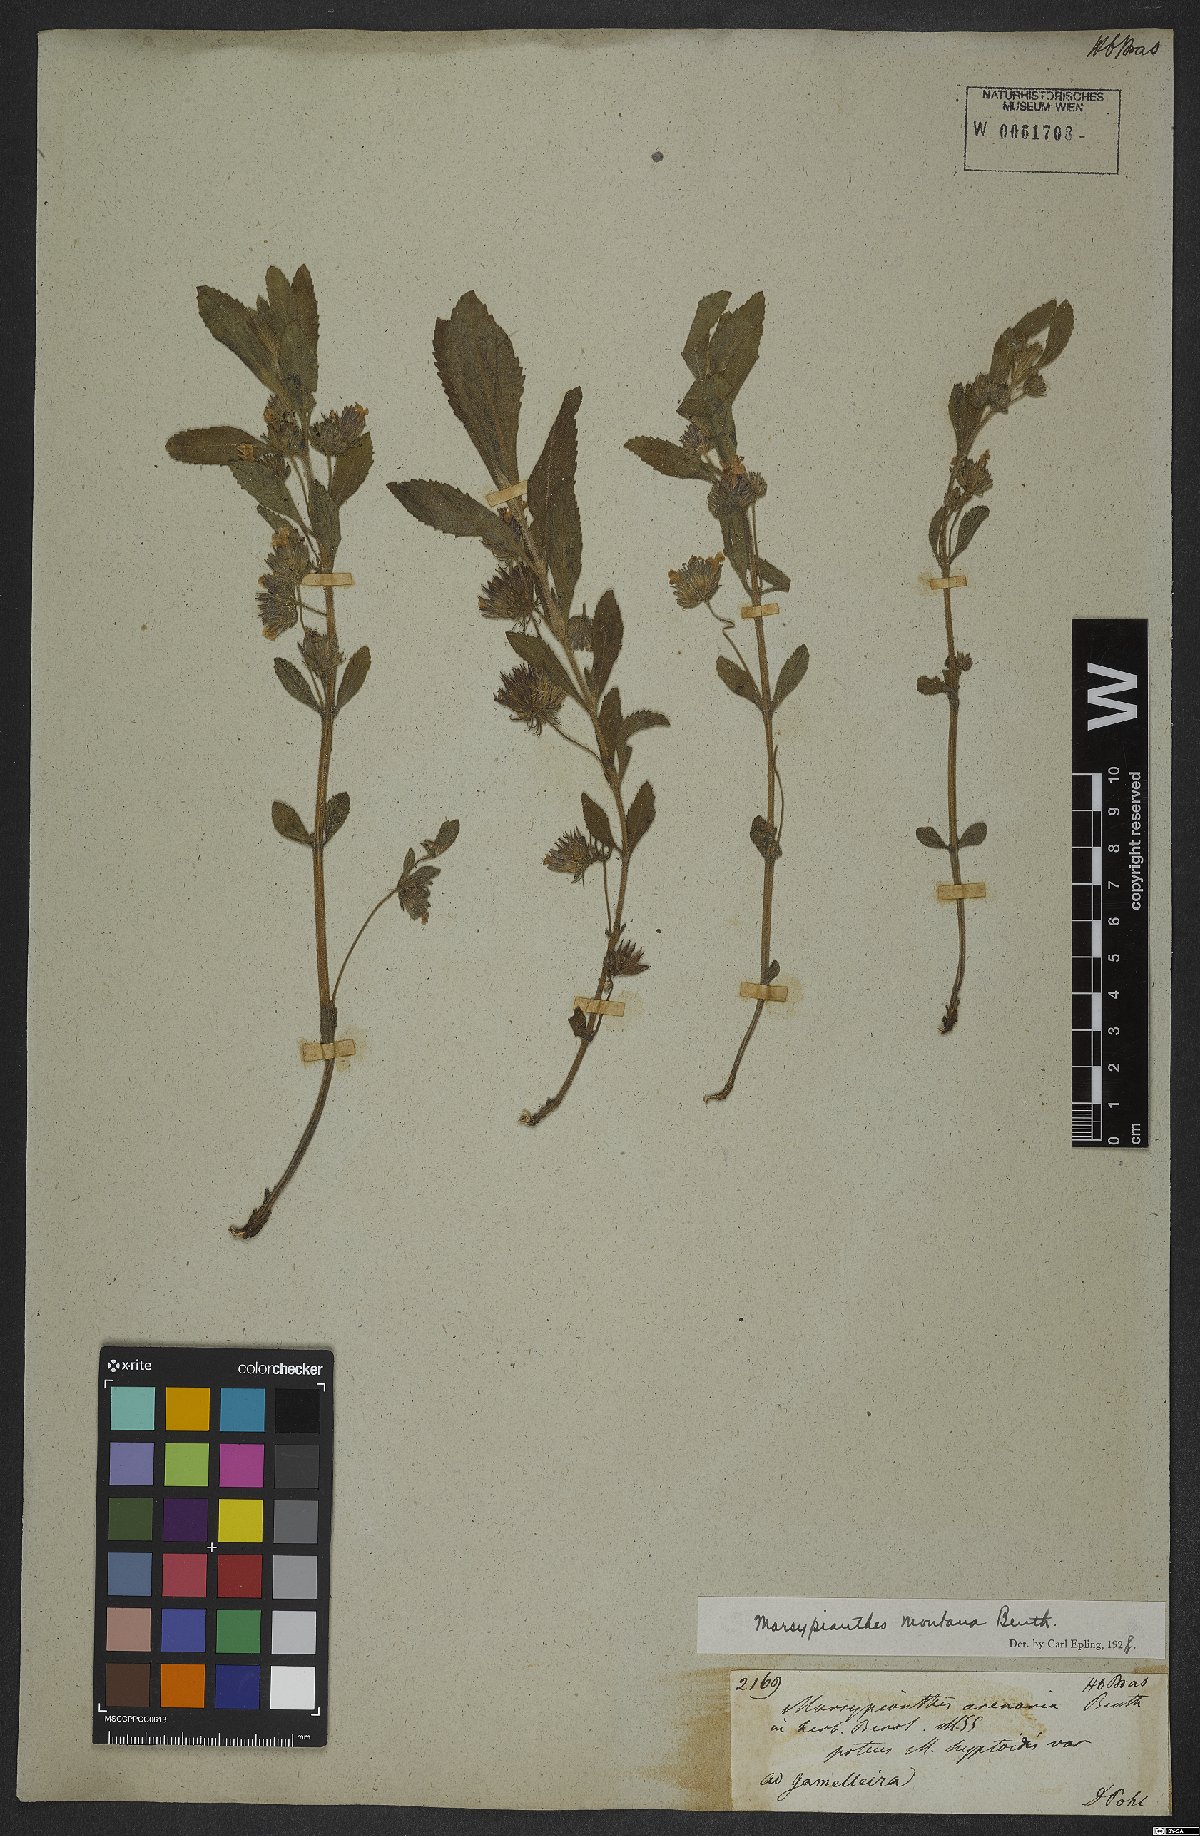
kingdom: Plantae
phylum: Tracheophyta
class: Magnoliopsida
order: Lamiales
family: Lamiaceae
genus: Marsypianthes
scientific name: Marsypianthes montana
